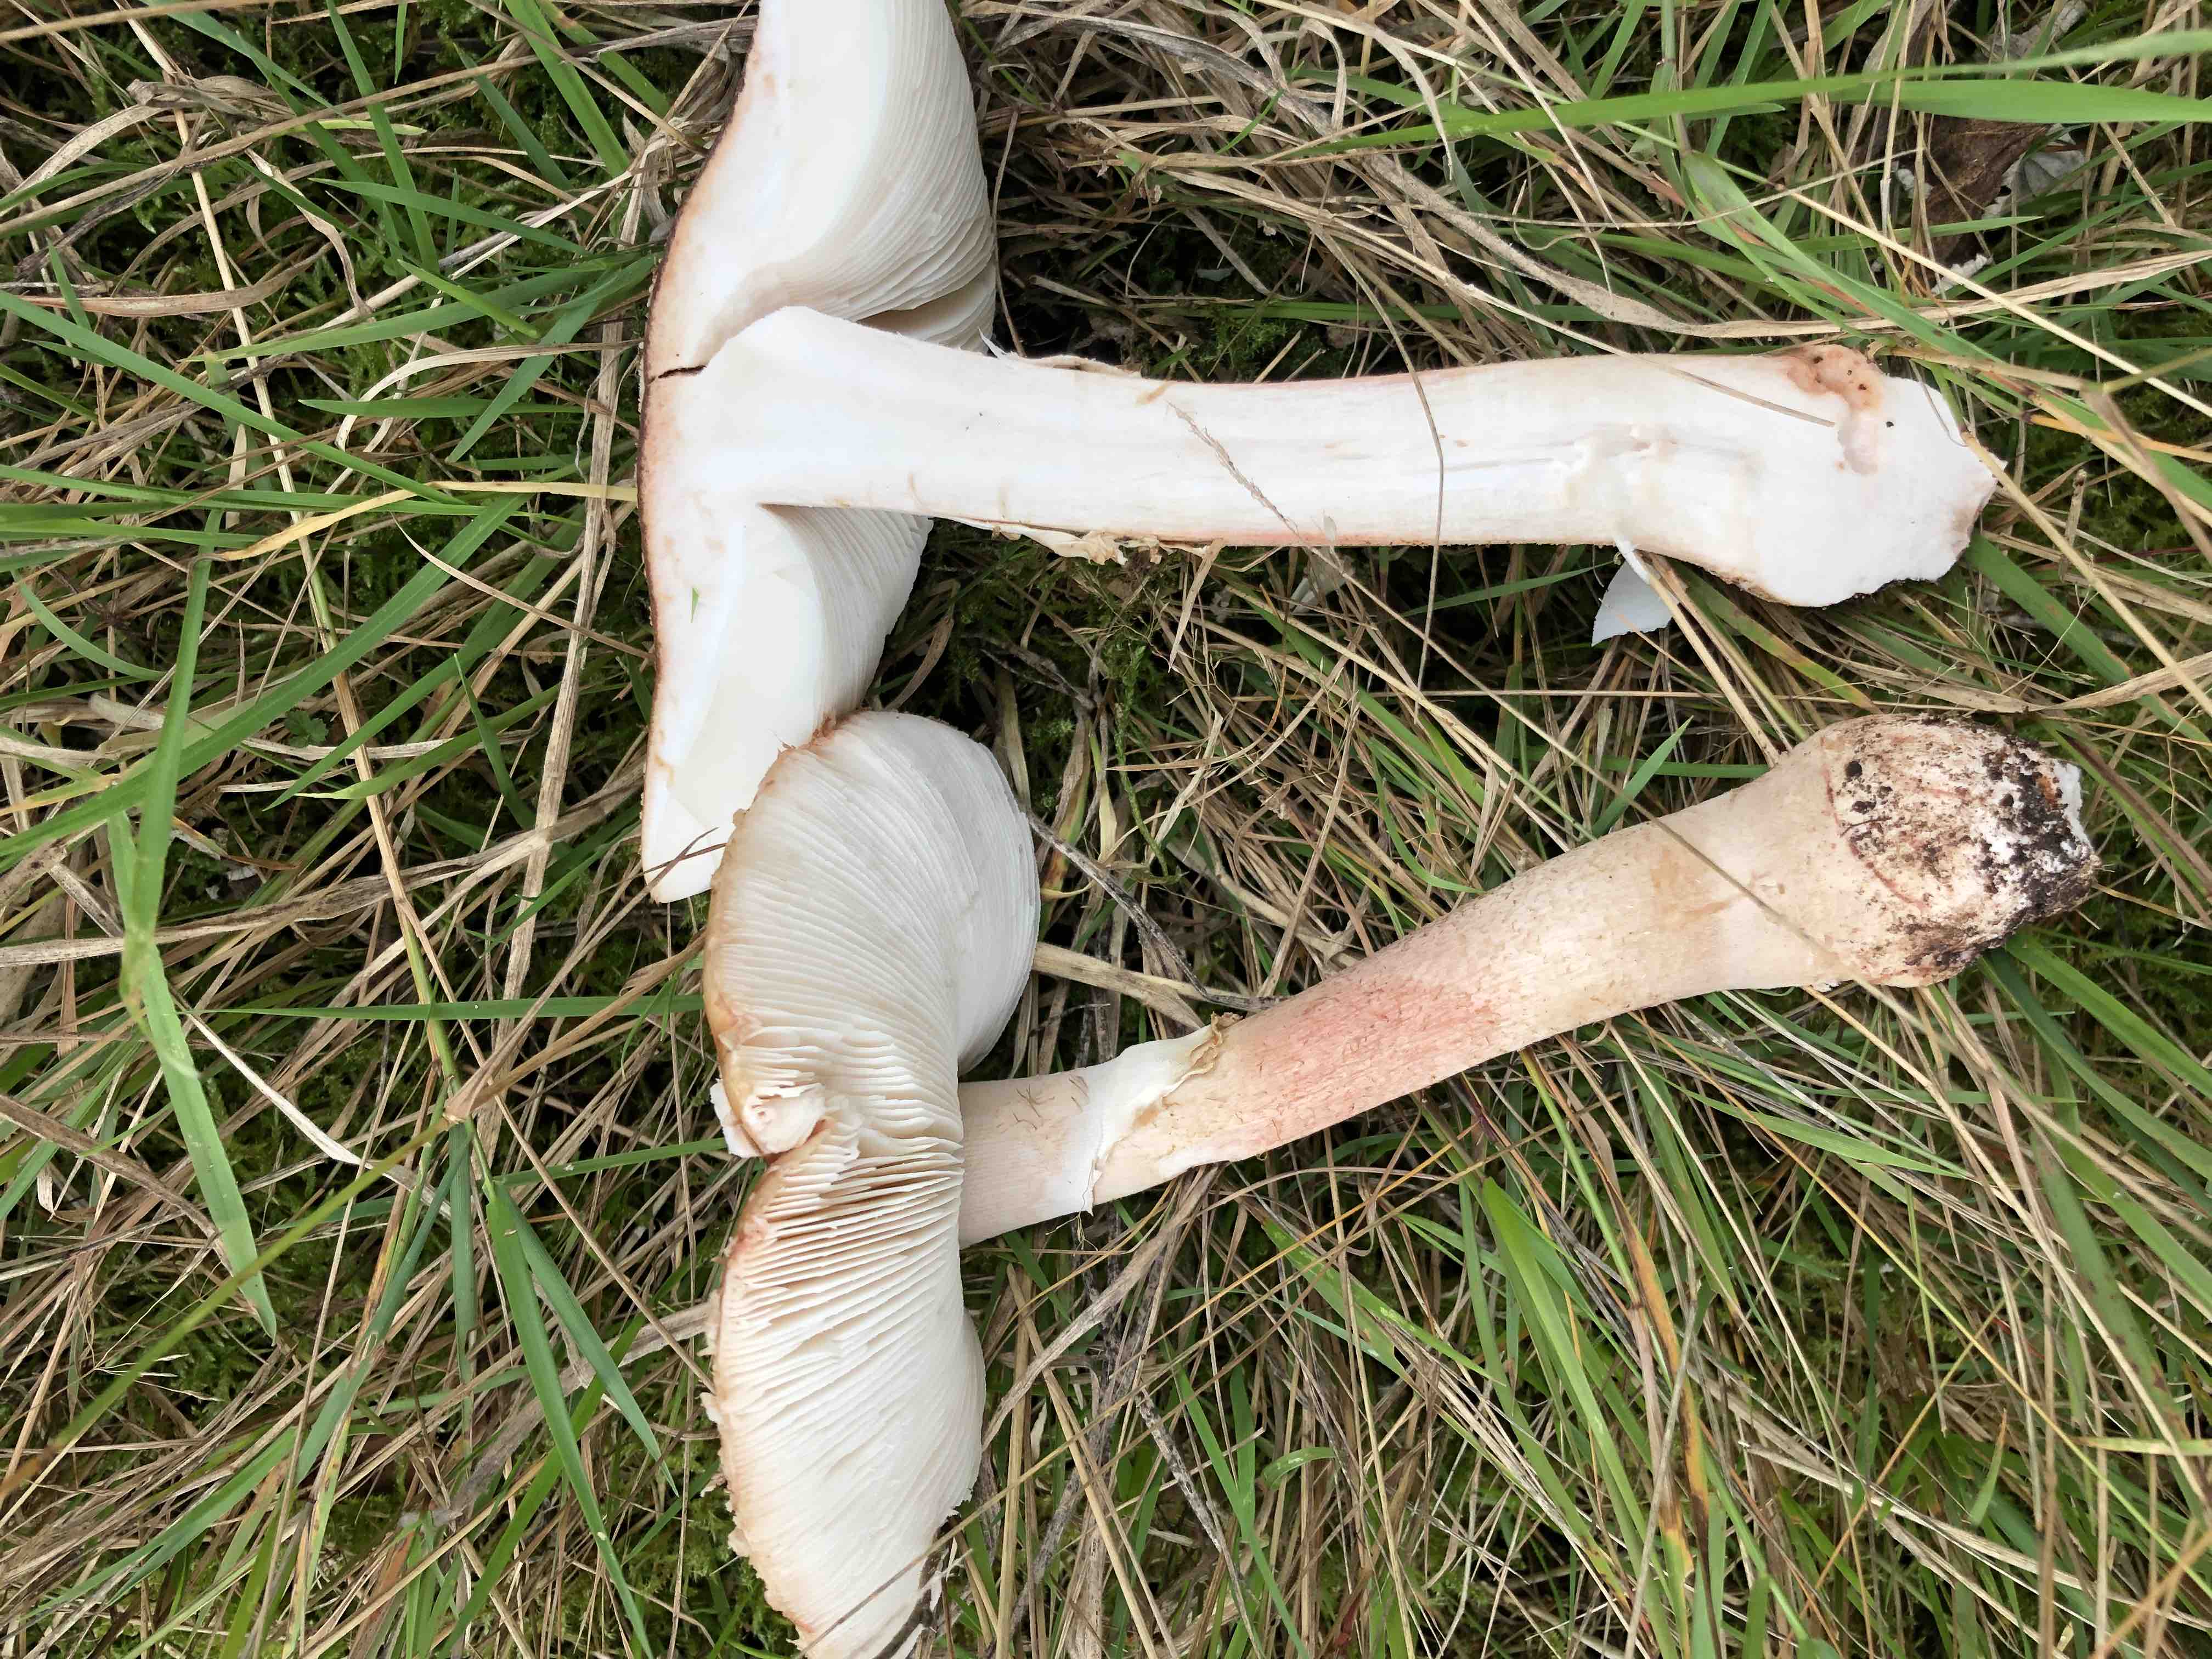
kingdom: Fungi
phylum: Basidiomycota
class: Agaricomycetes
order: Agaricales
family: Amanitaceae
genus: Amanita
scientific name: Amanita rubescens
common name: rødmende fluesvamp
